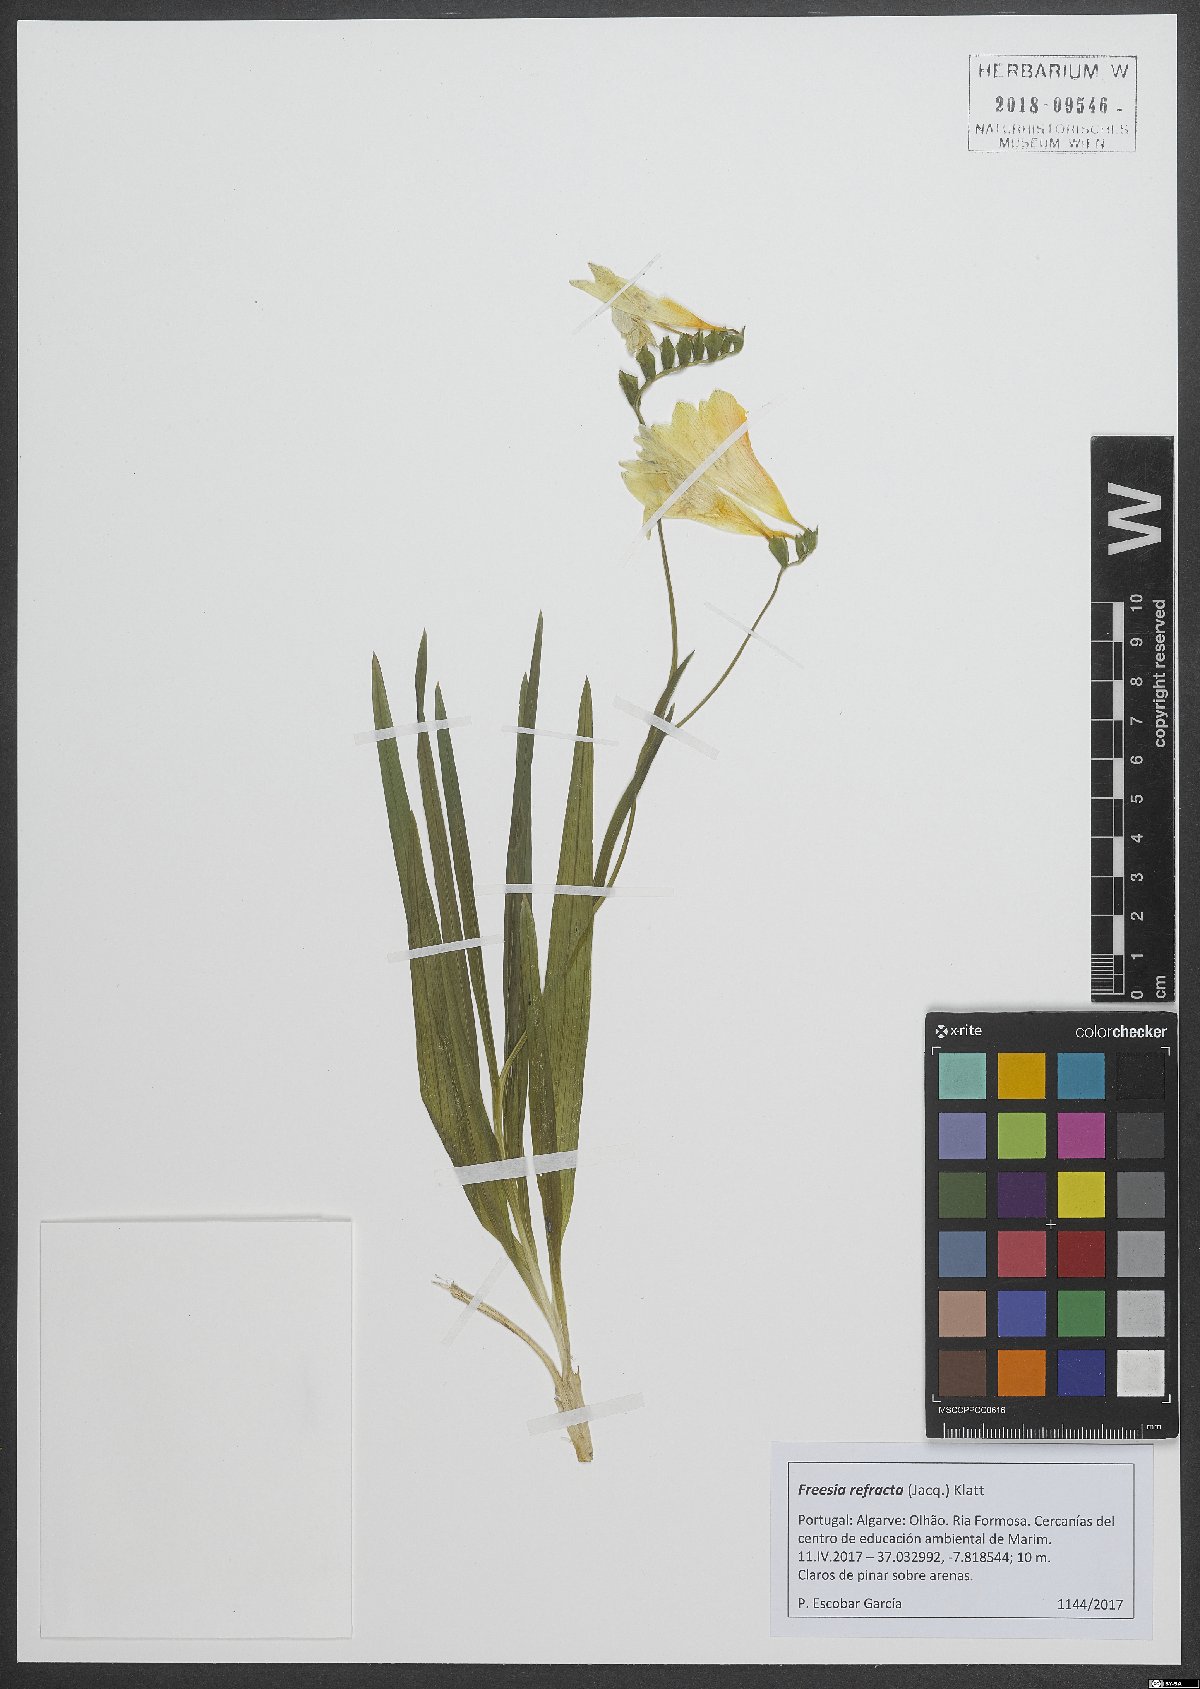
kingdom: Plantae
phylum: Tracheophyta
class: Liliopsida
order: Asparagales
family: Iridaceae
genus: Freesia
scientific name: Freesia refracta
